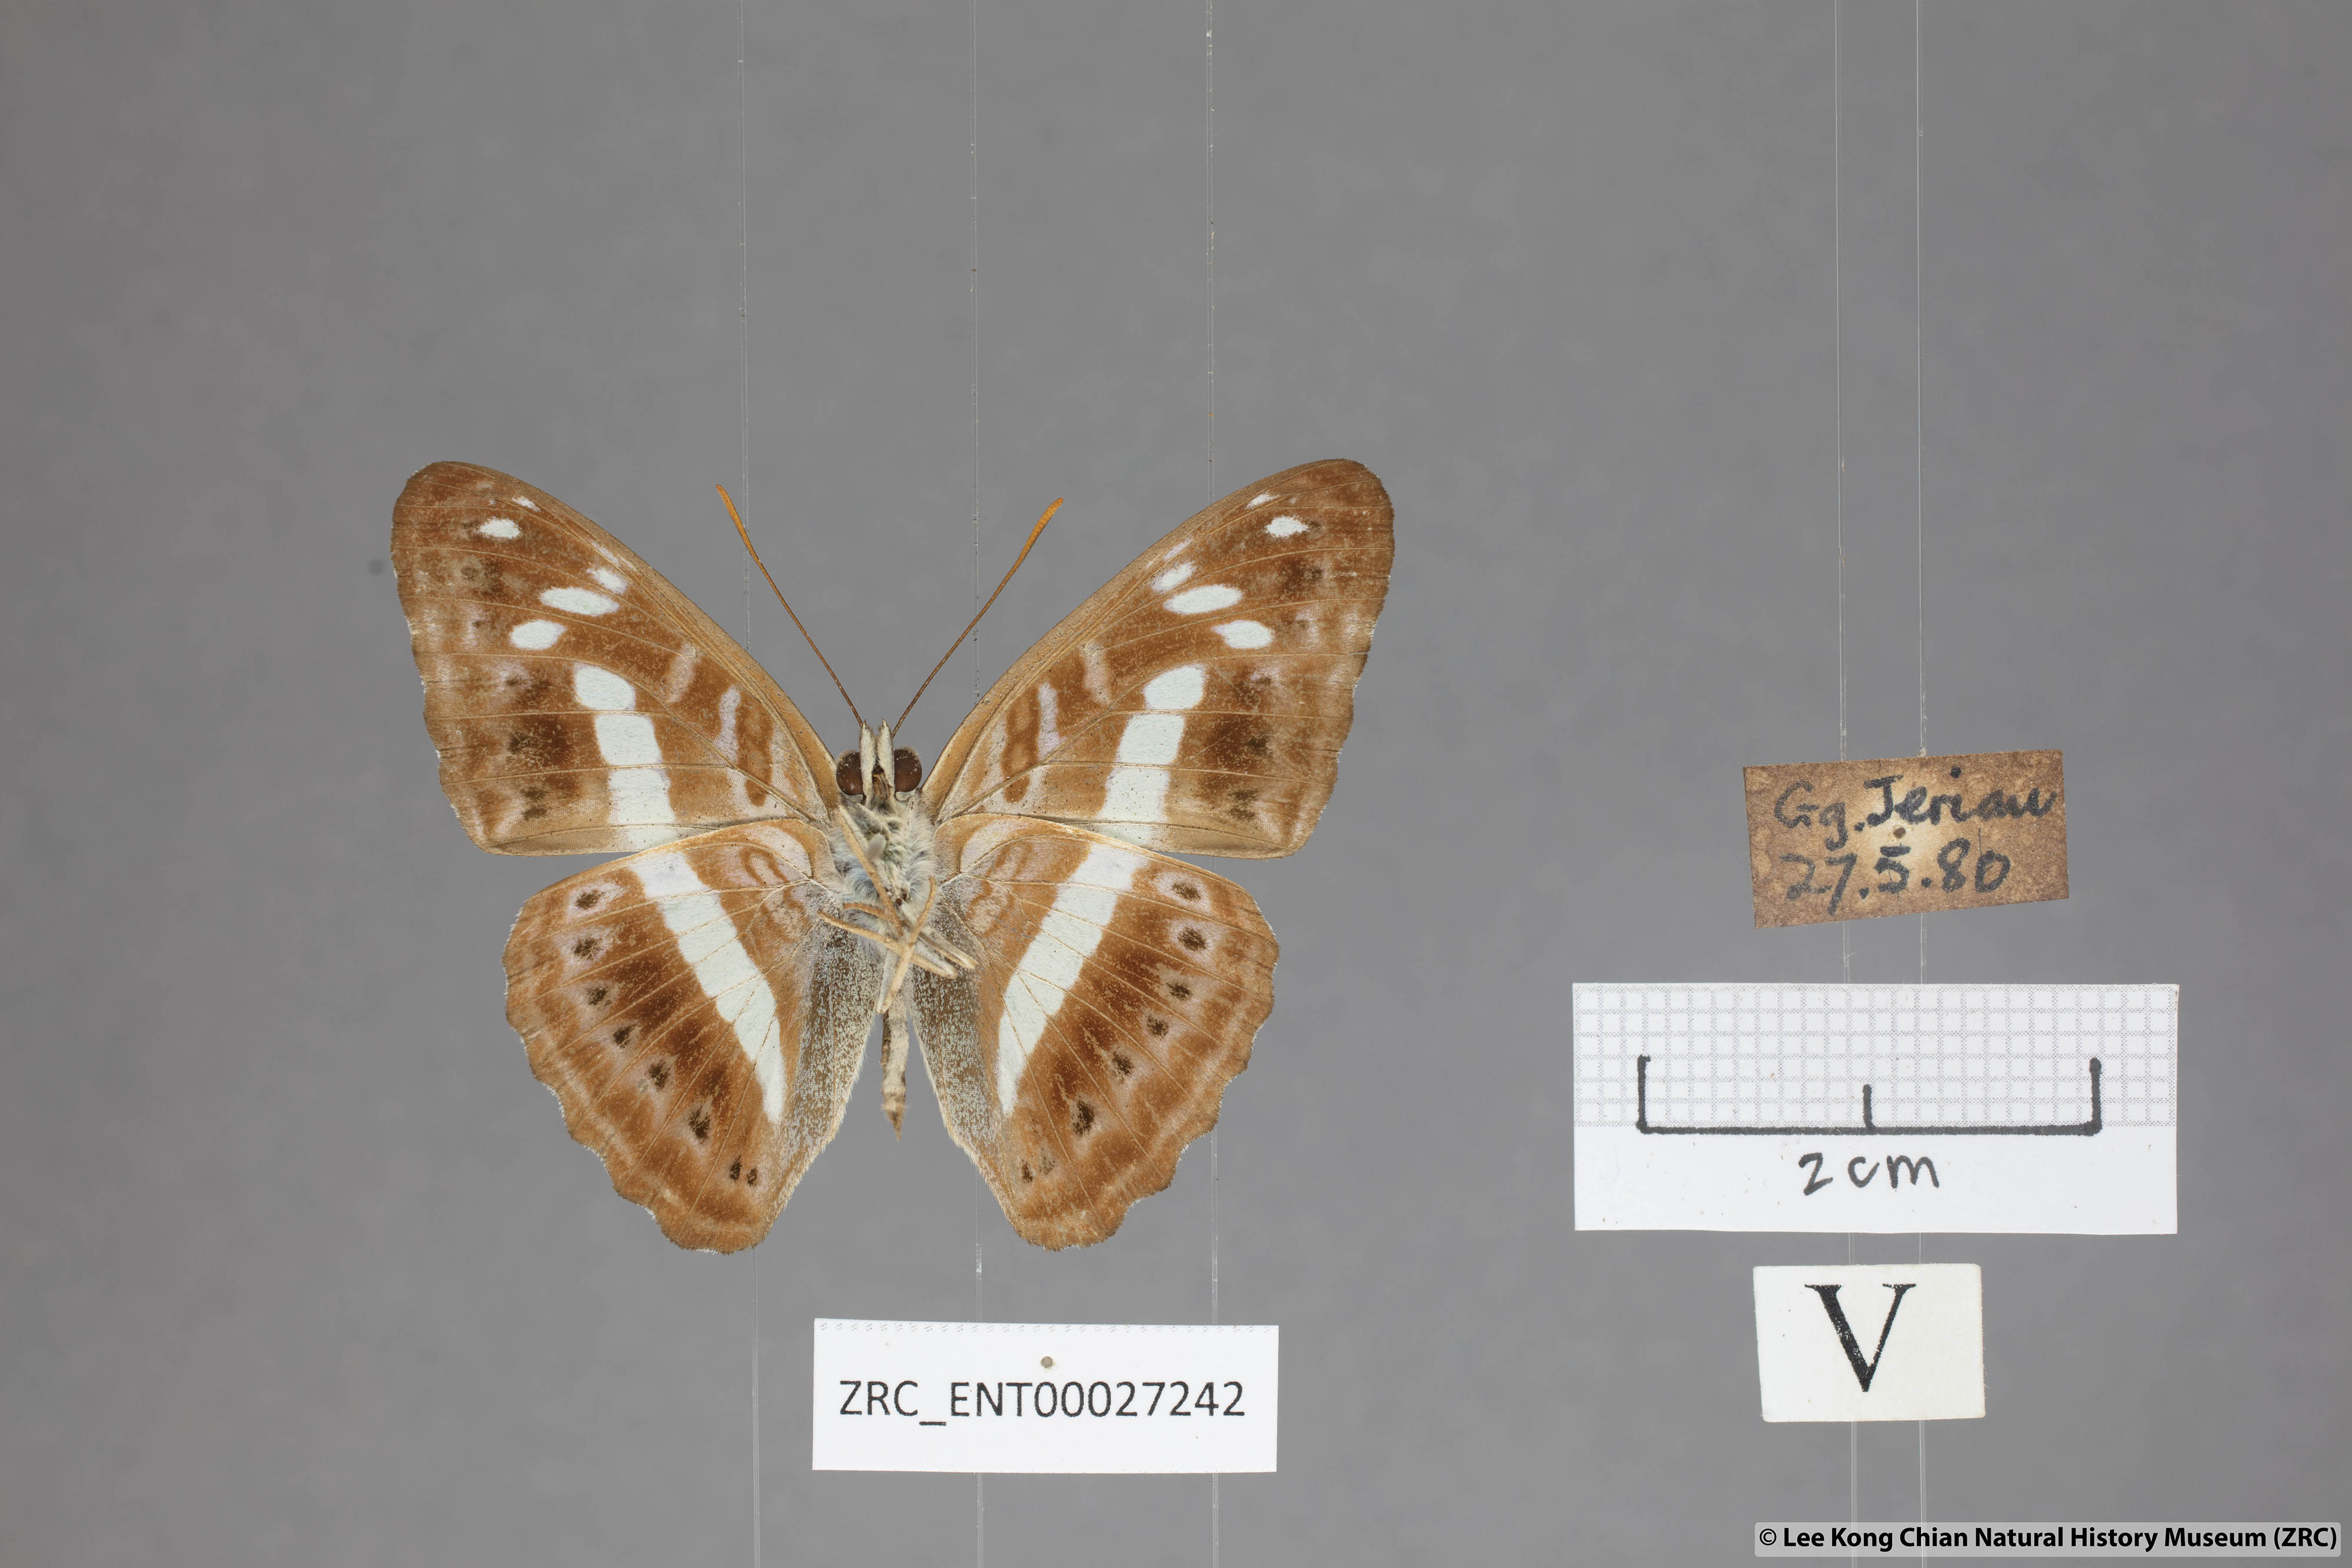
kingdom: Animalia
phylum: Arthropoda
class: Insecta
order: Lepidoptera
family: Nymphalidae
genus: Limenitis
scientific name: Limenitis
